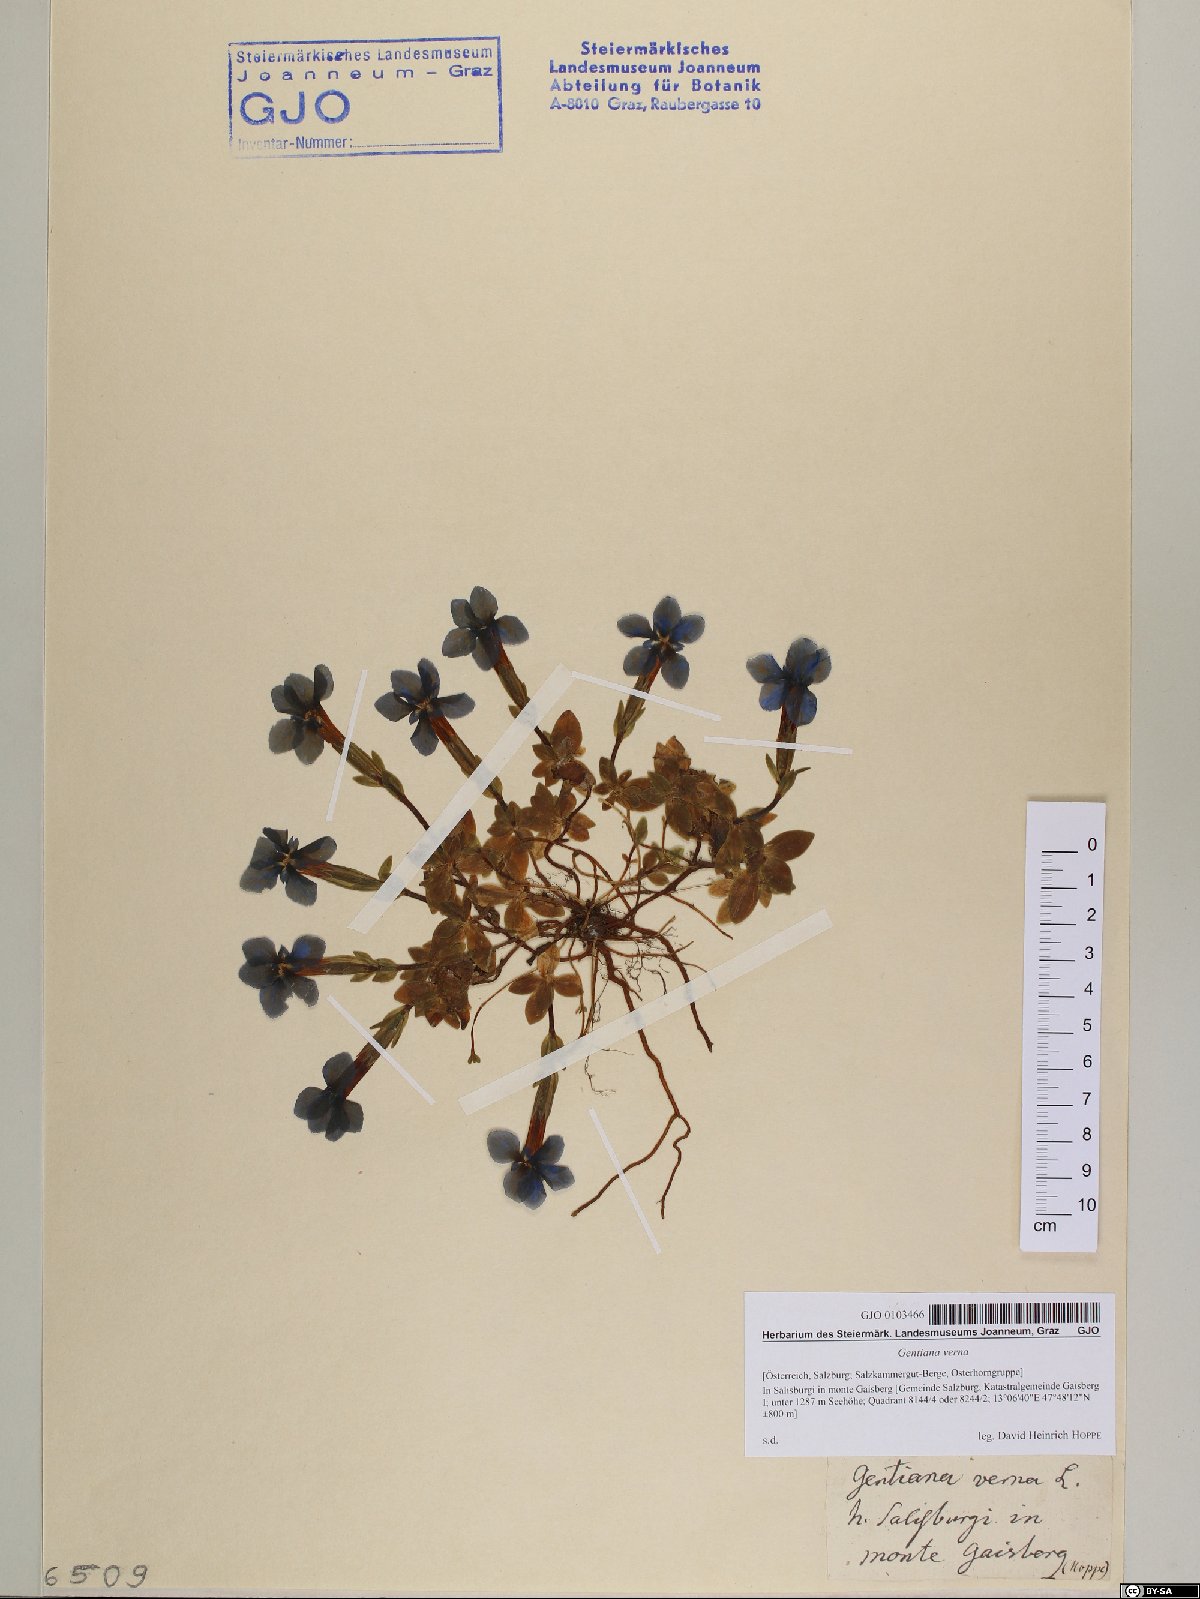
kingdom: Plantae
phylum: Tracheophyta
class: Magnoliopsida
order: Gentianales
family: Gentianaceae
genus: Gentiana
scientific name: Gentiana verna
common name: Spring gentian
